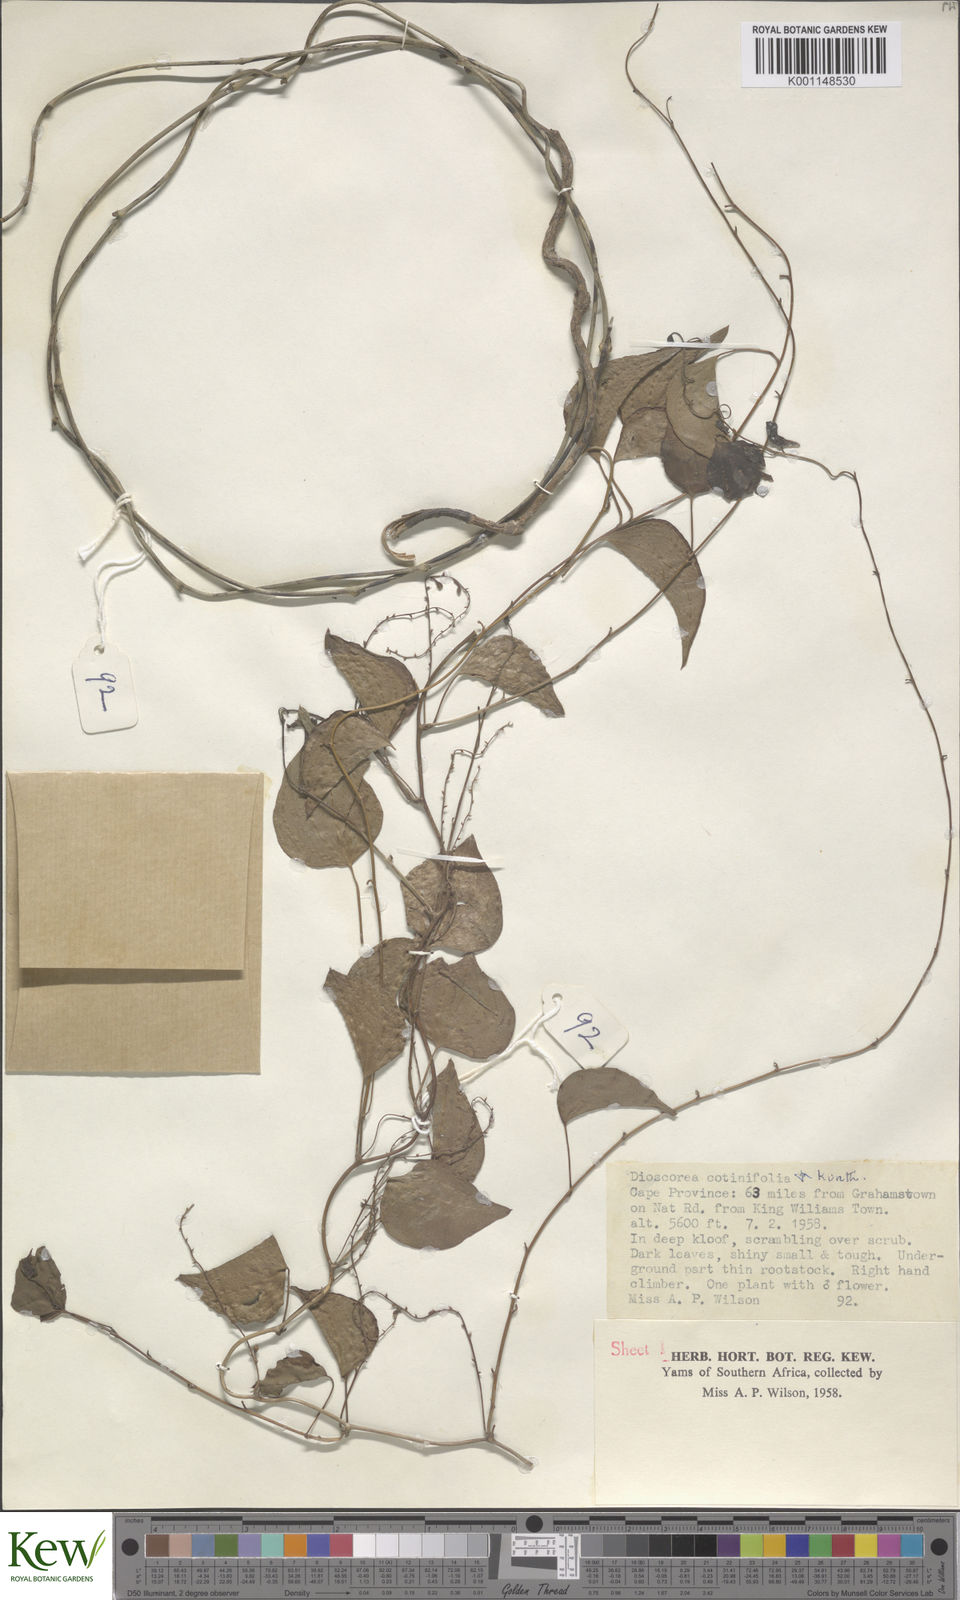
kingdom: Plantae
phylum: Tracheophyta
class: Liliopsida
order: Dioscoreales
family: Dioscoreaceae
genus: Dioscorea
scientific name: Dioscorea cotinifolia
